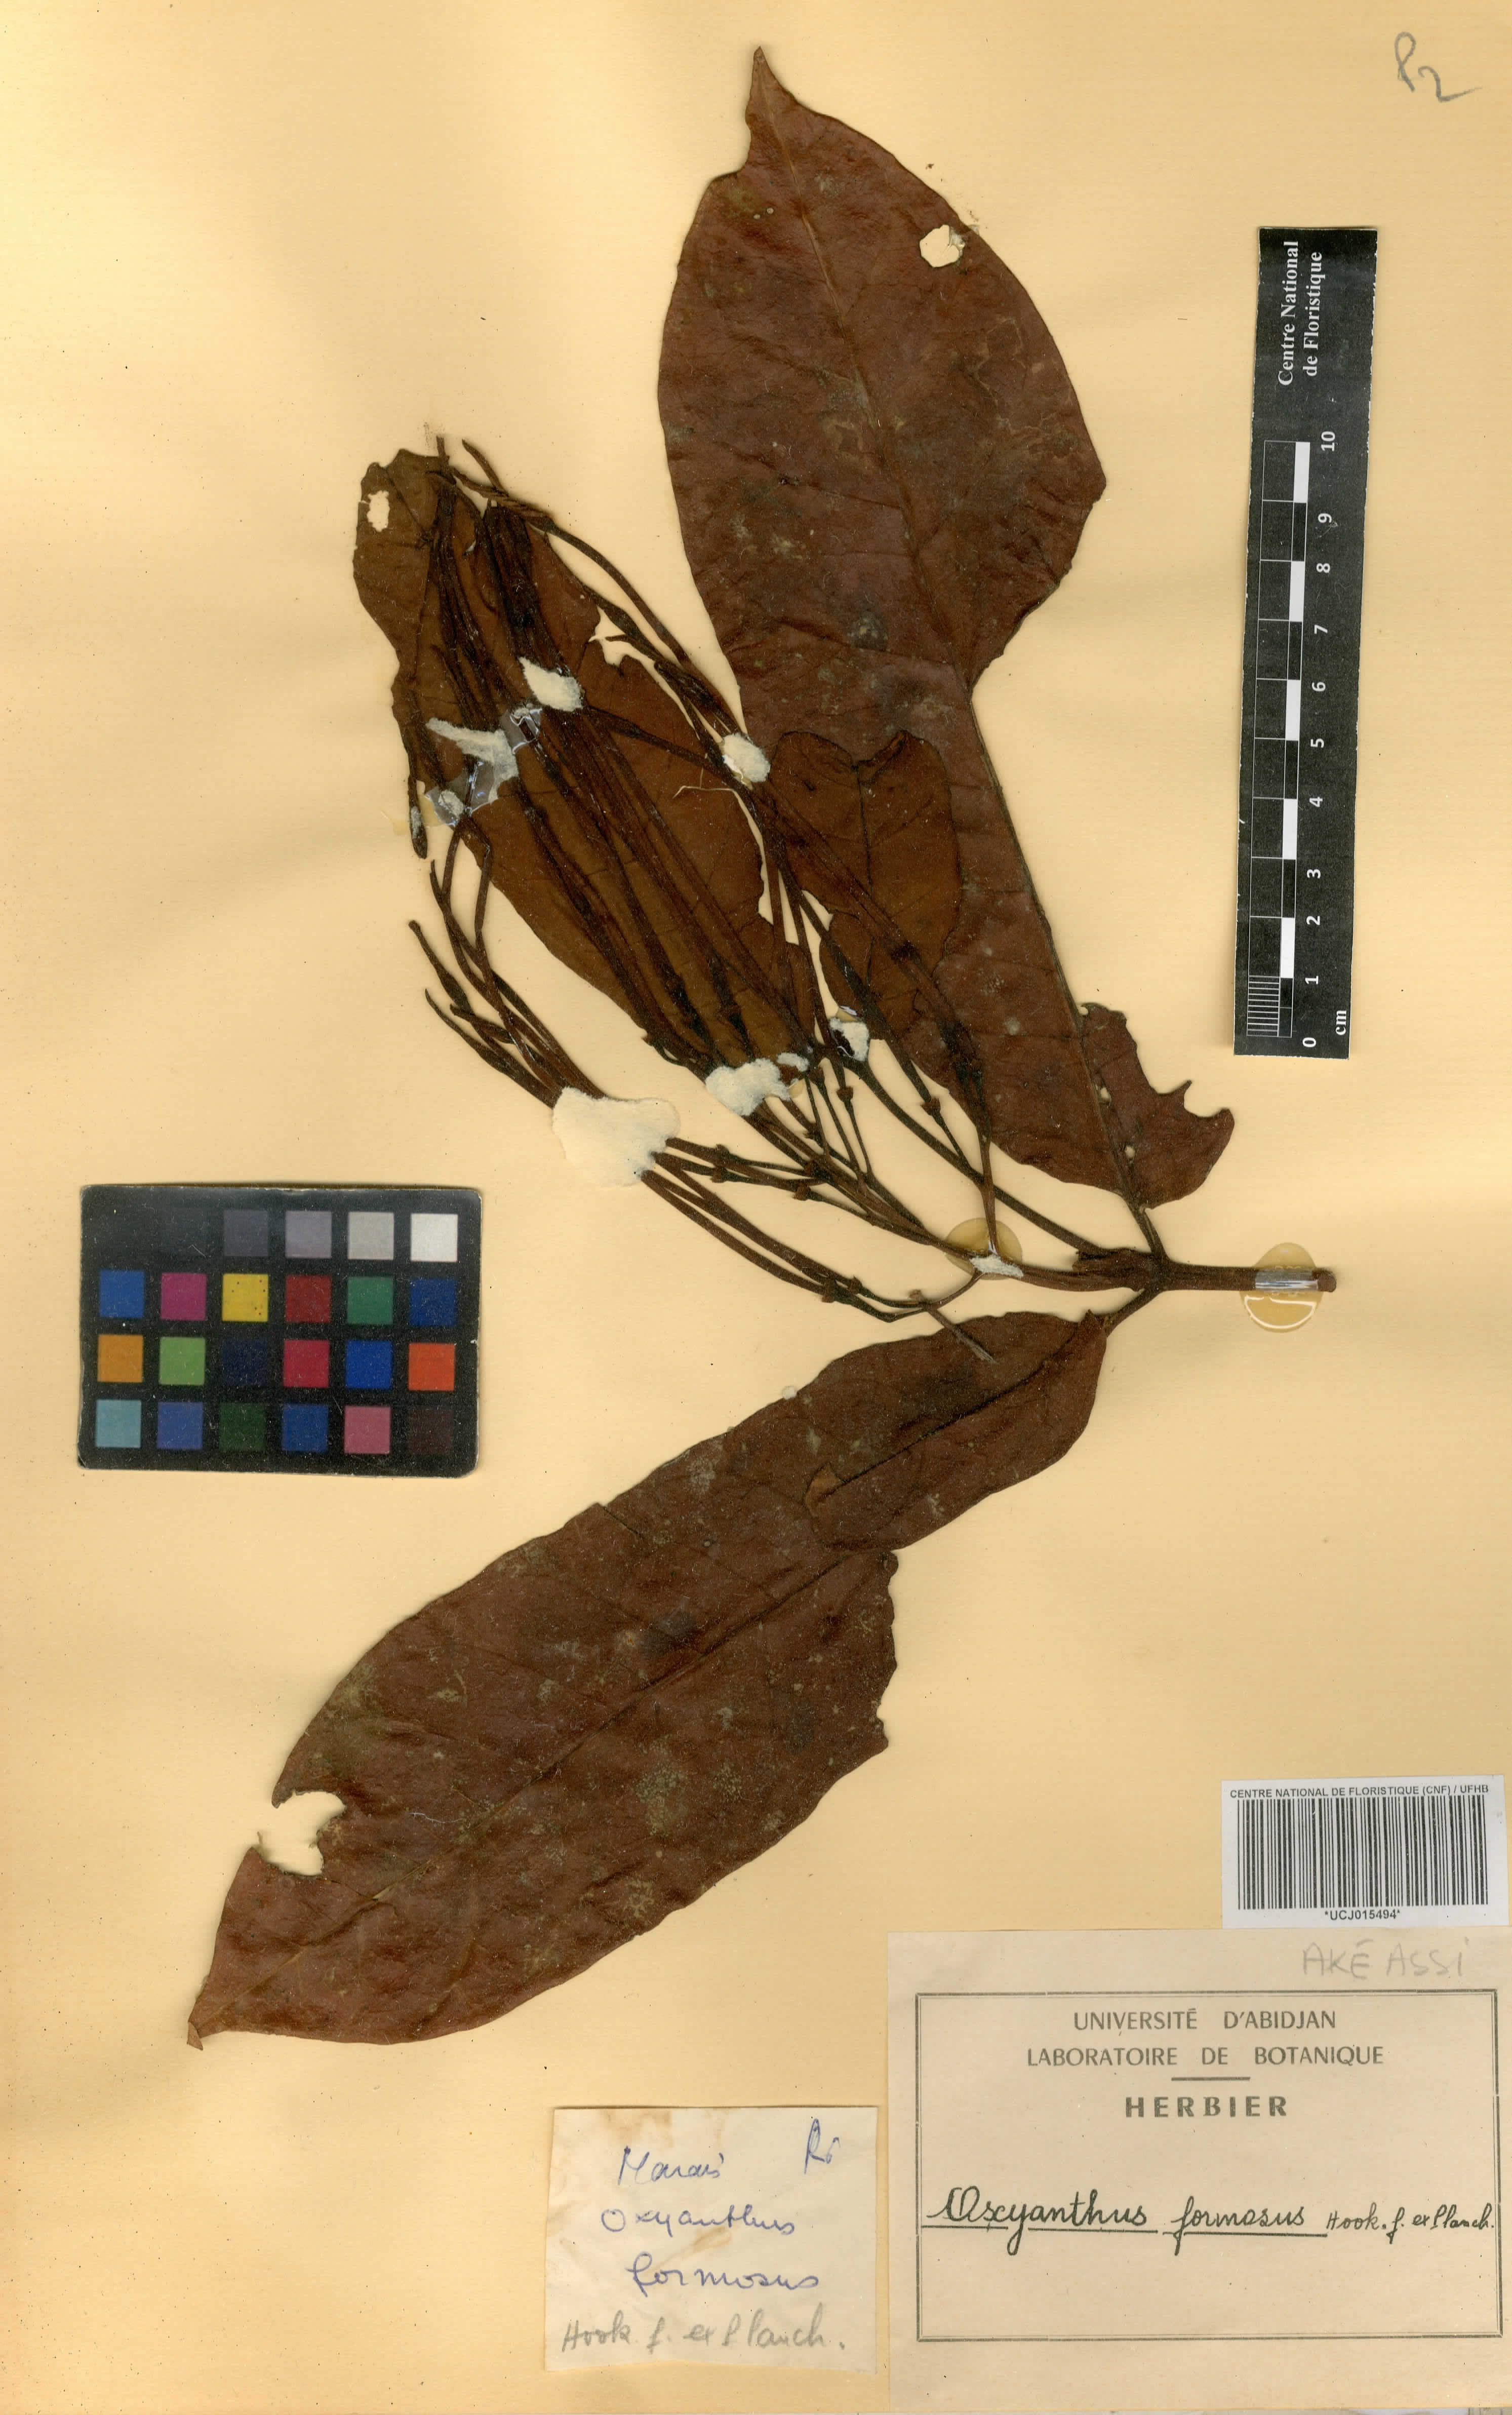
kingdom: Plantae
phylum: Tracheophyta
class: Magnoliopsida
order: Gentianales
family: Rubiaceae
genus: Oxyanthus
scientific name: Oxyanthus formosus
